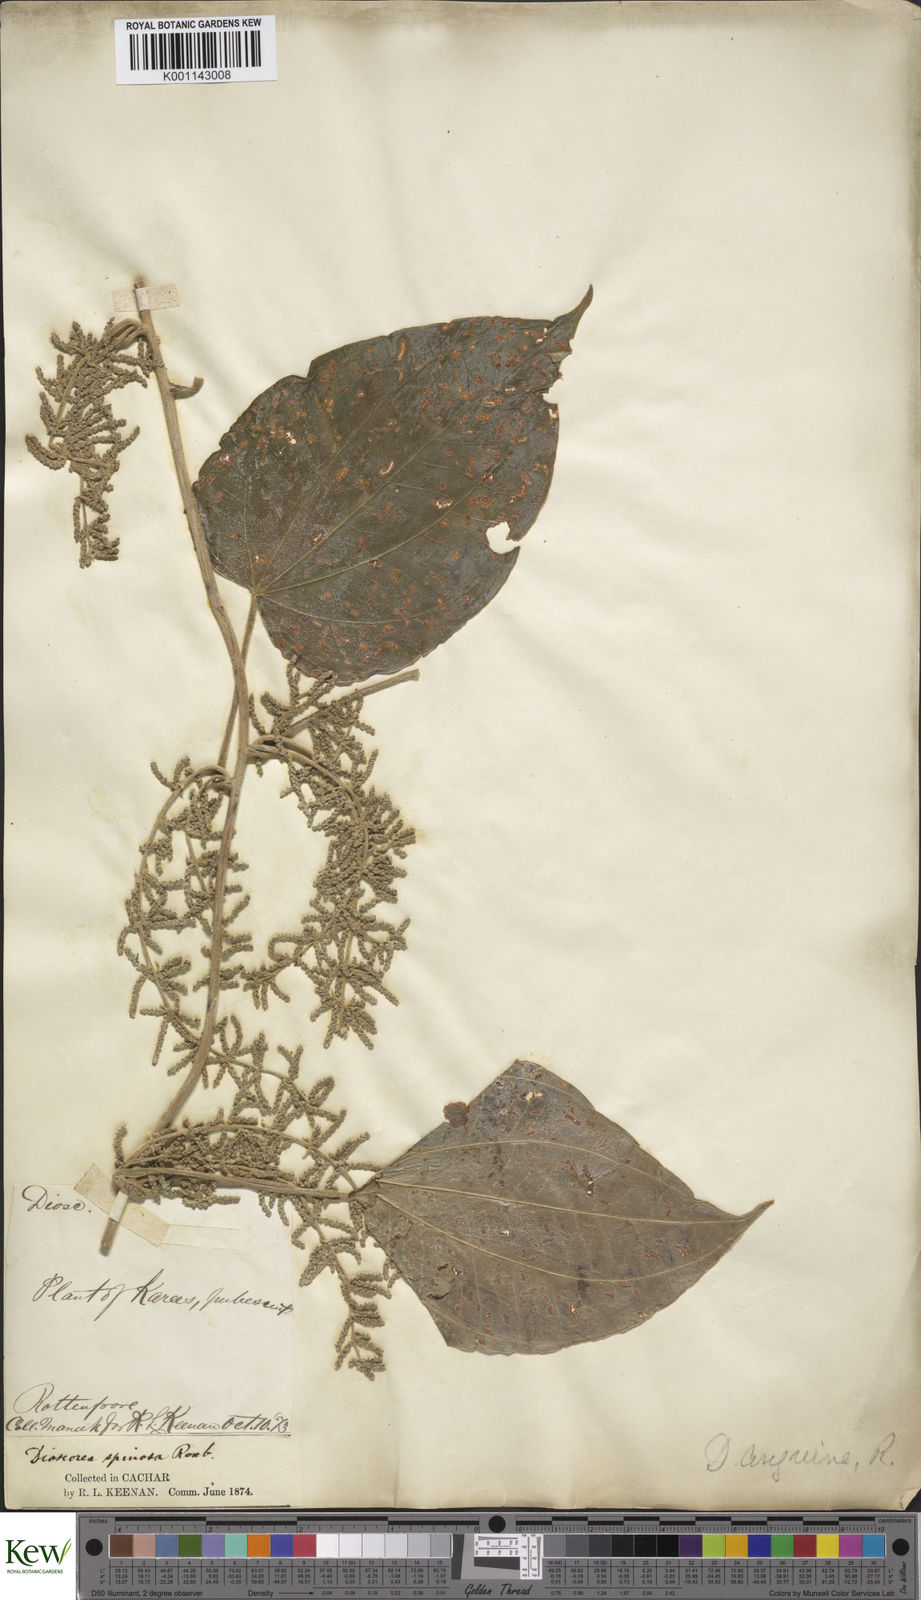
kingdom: Plantae
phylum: Tracheophyta
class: Liliopsida
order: Dioscoreales
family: Dioscoreaceae
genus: Dioscorea
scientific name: Dioscorea pubera
